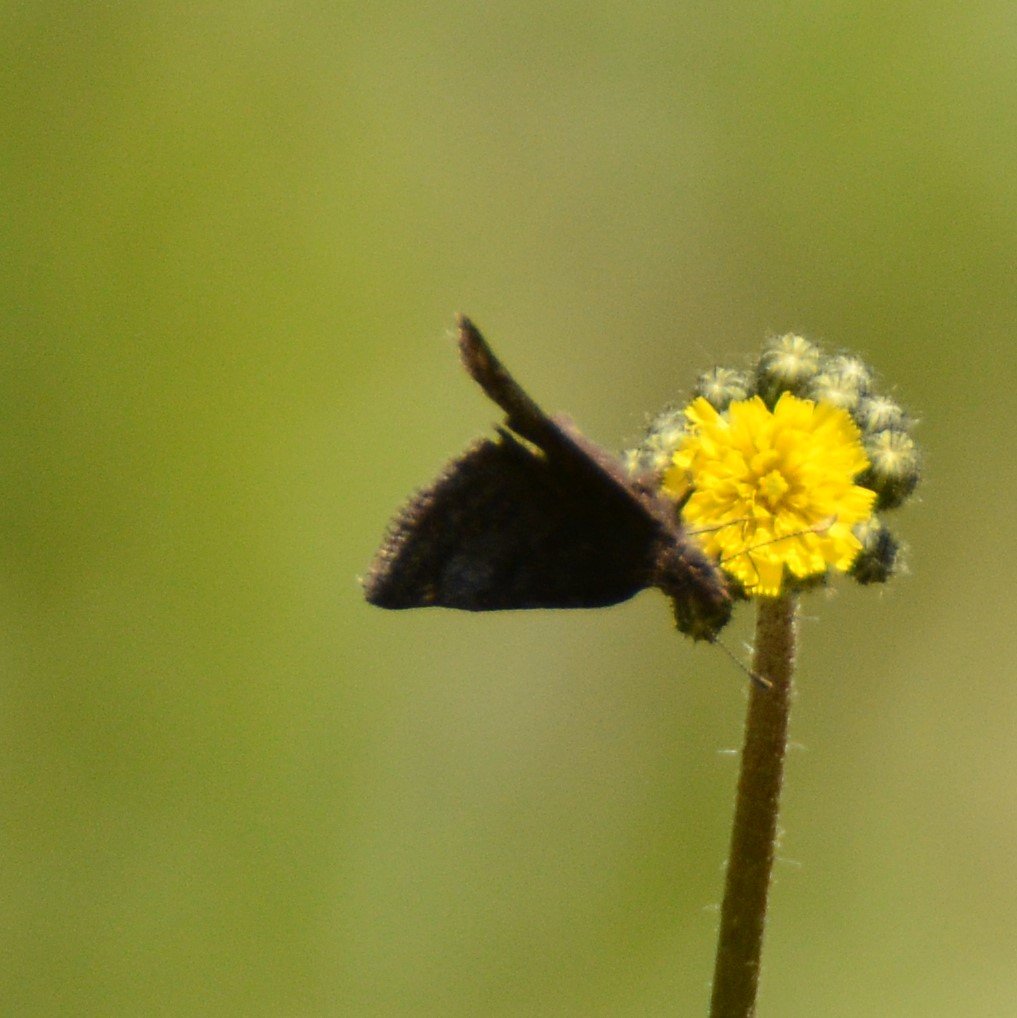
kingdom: Animalia
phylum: Arthropoda
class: Insecta
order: Lepidoptera
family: Hesperiidae
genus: Erynnis
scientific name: Erynnis icelus
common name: Dreamy Duskywing
